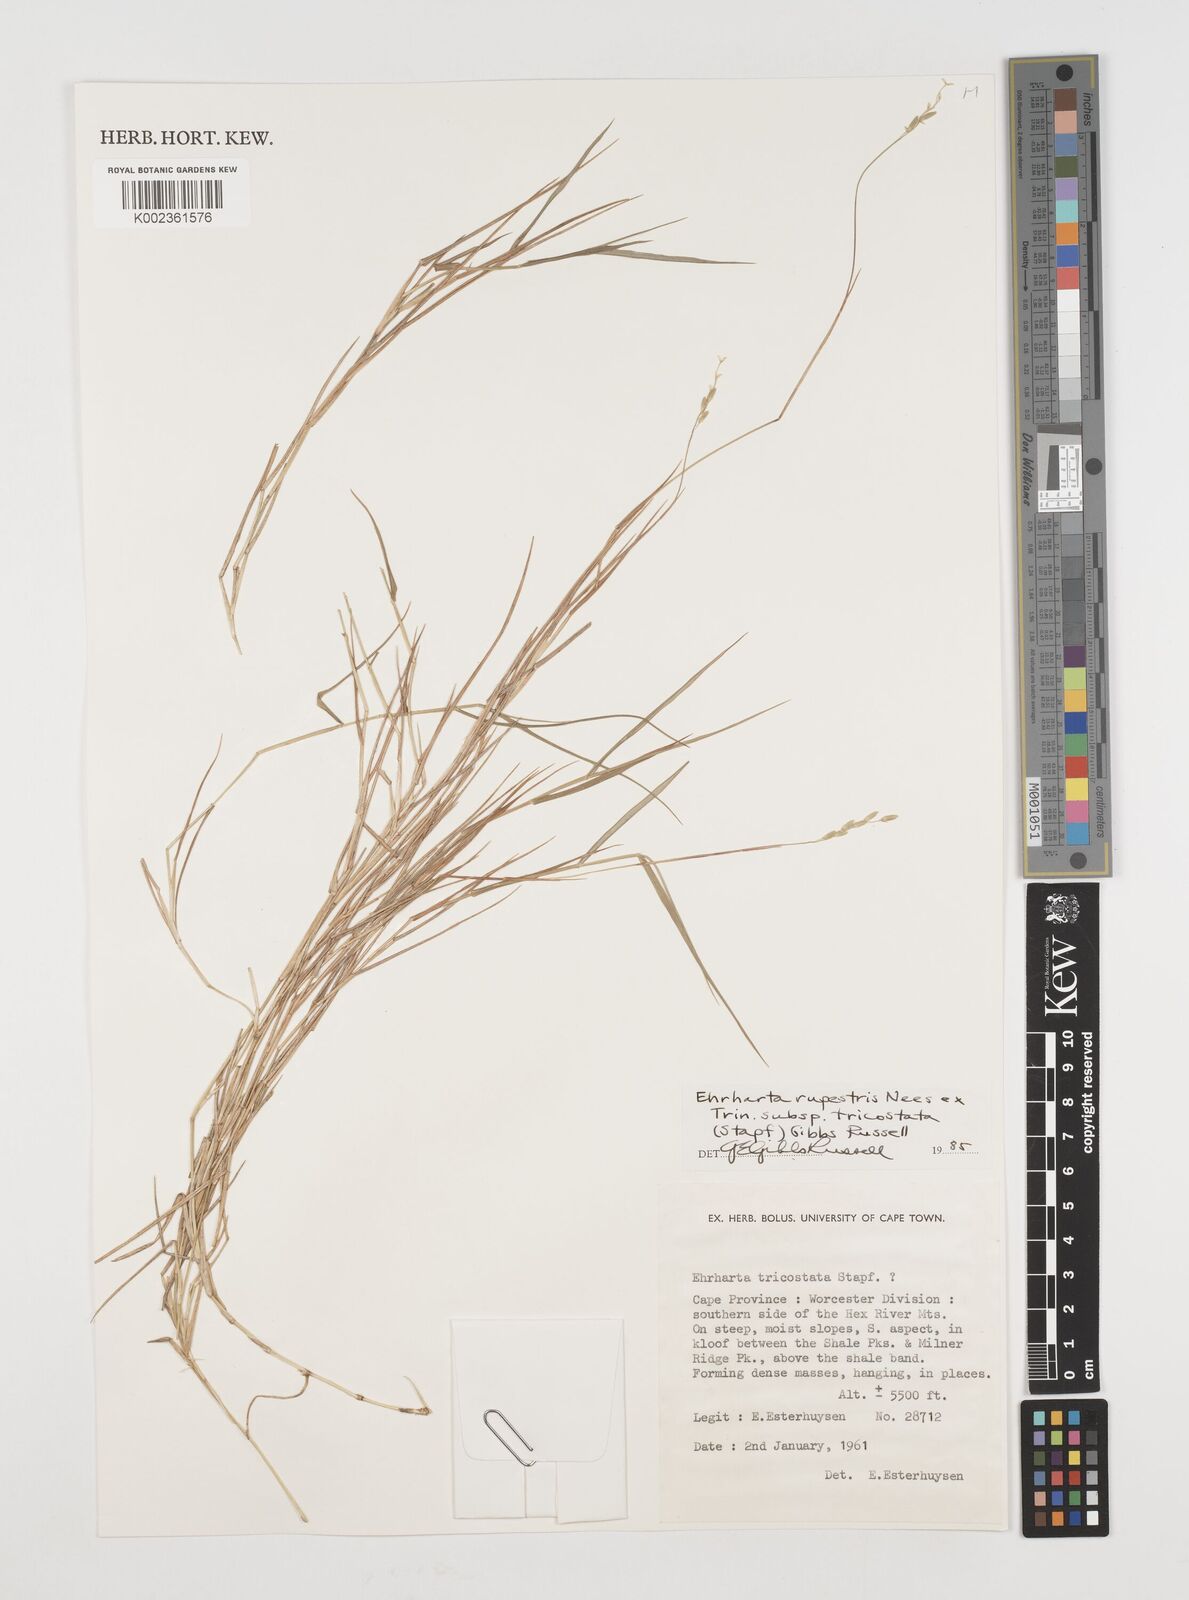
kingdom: Plantae
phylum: Tracheophyta
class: Liliopsida
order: Poales
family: Poaceae
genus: Ehrharta
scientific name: Ehrharta rupestris
